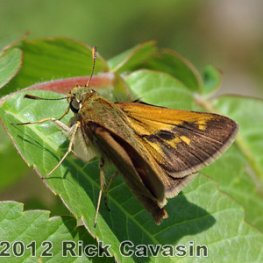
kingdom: Animalia
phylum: Arthropoda
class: Insecta
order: Lepidoptera
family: Hesperiidae
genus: Polites
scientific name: Polites
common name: Crossline Skipper
